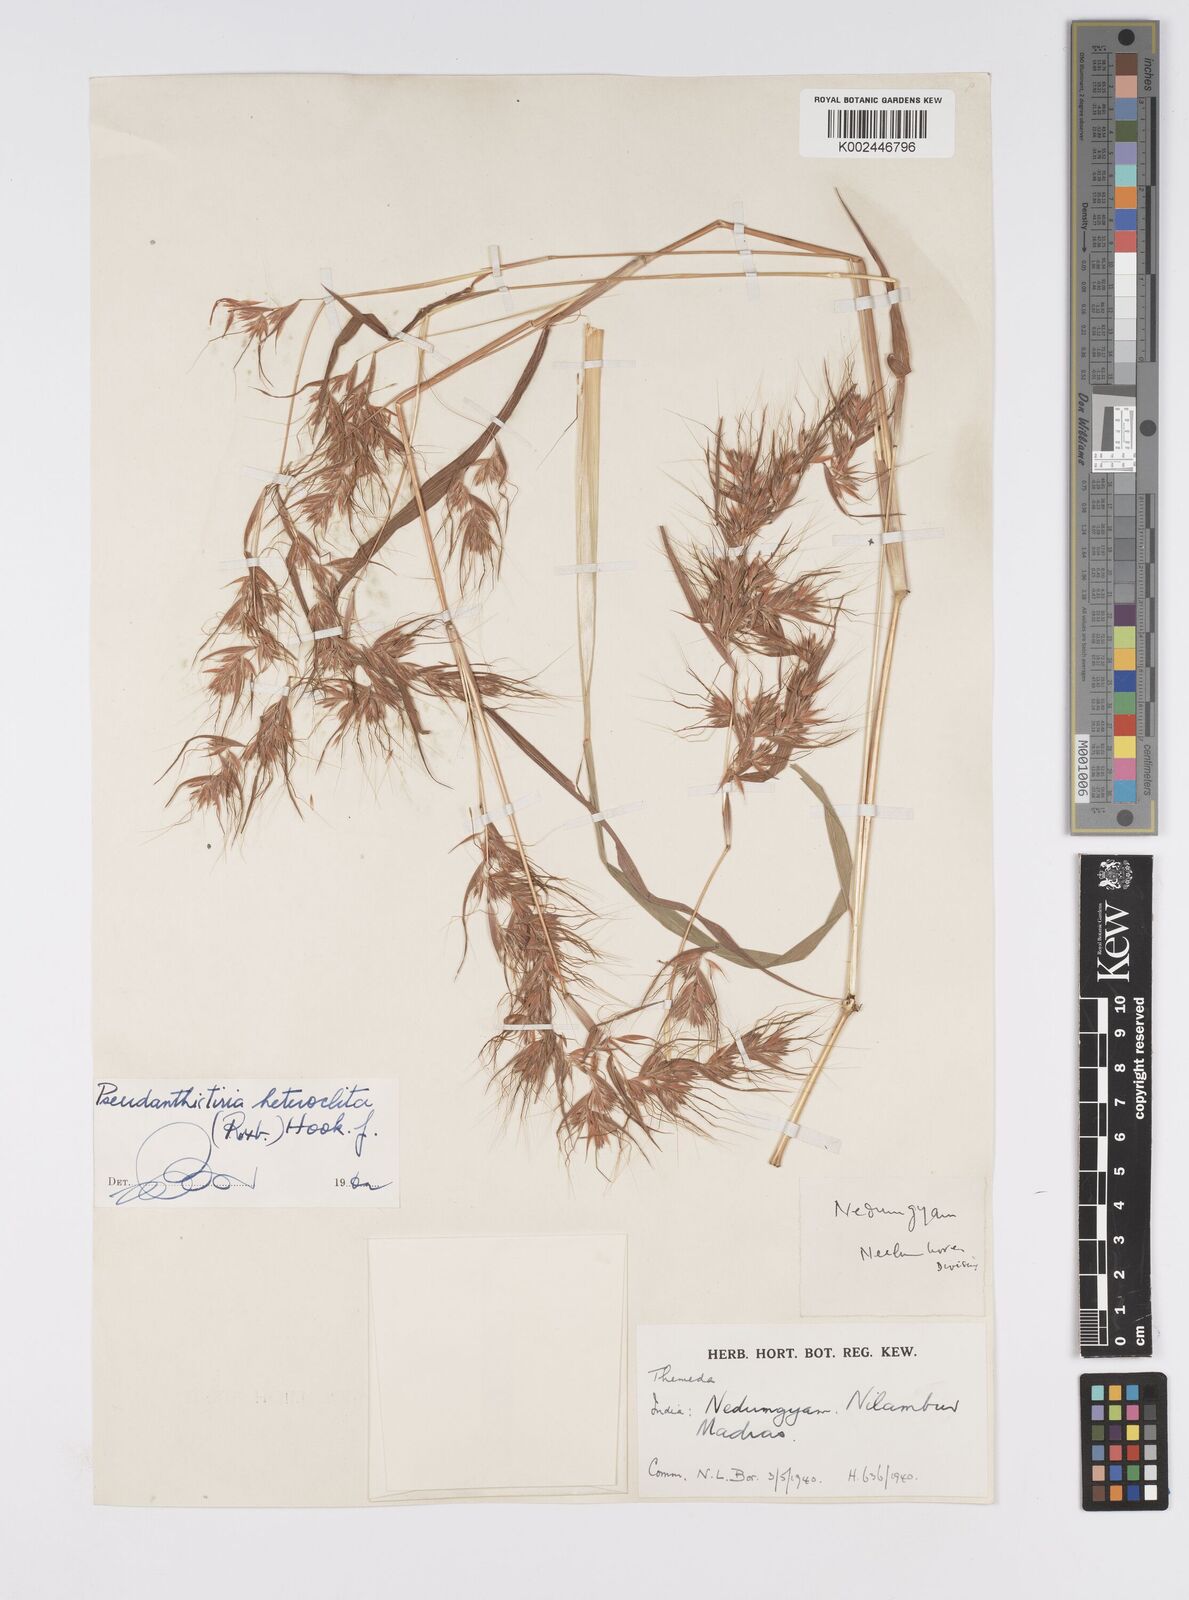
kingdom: Plantae
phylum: Tracheophyta
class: Liliopsida
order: Poales
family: Poaceae
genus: Pseudanthistiria
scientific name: Pseudanthistiria heteroclita
